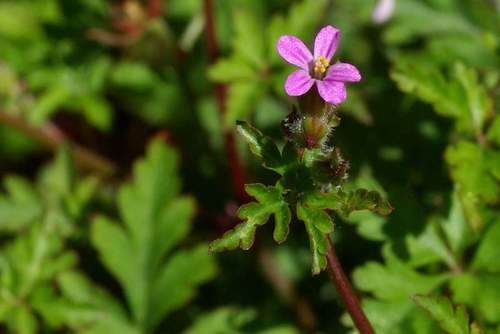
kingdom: Plantae
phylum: Tracheophyta
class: Magnoliopsida
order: Geraniales
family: Geraniaceae
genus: Geranium
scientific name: Geranium purpureum
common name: Little-robin
